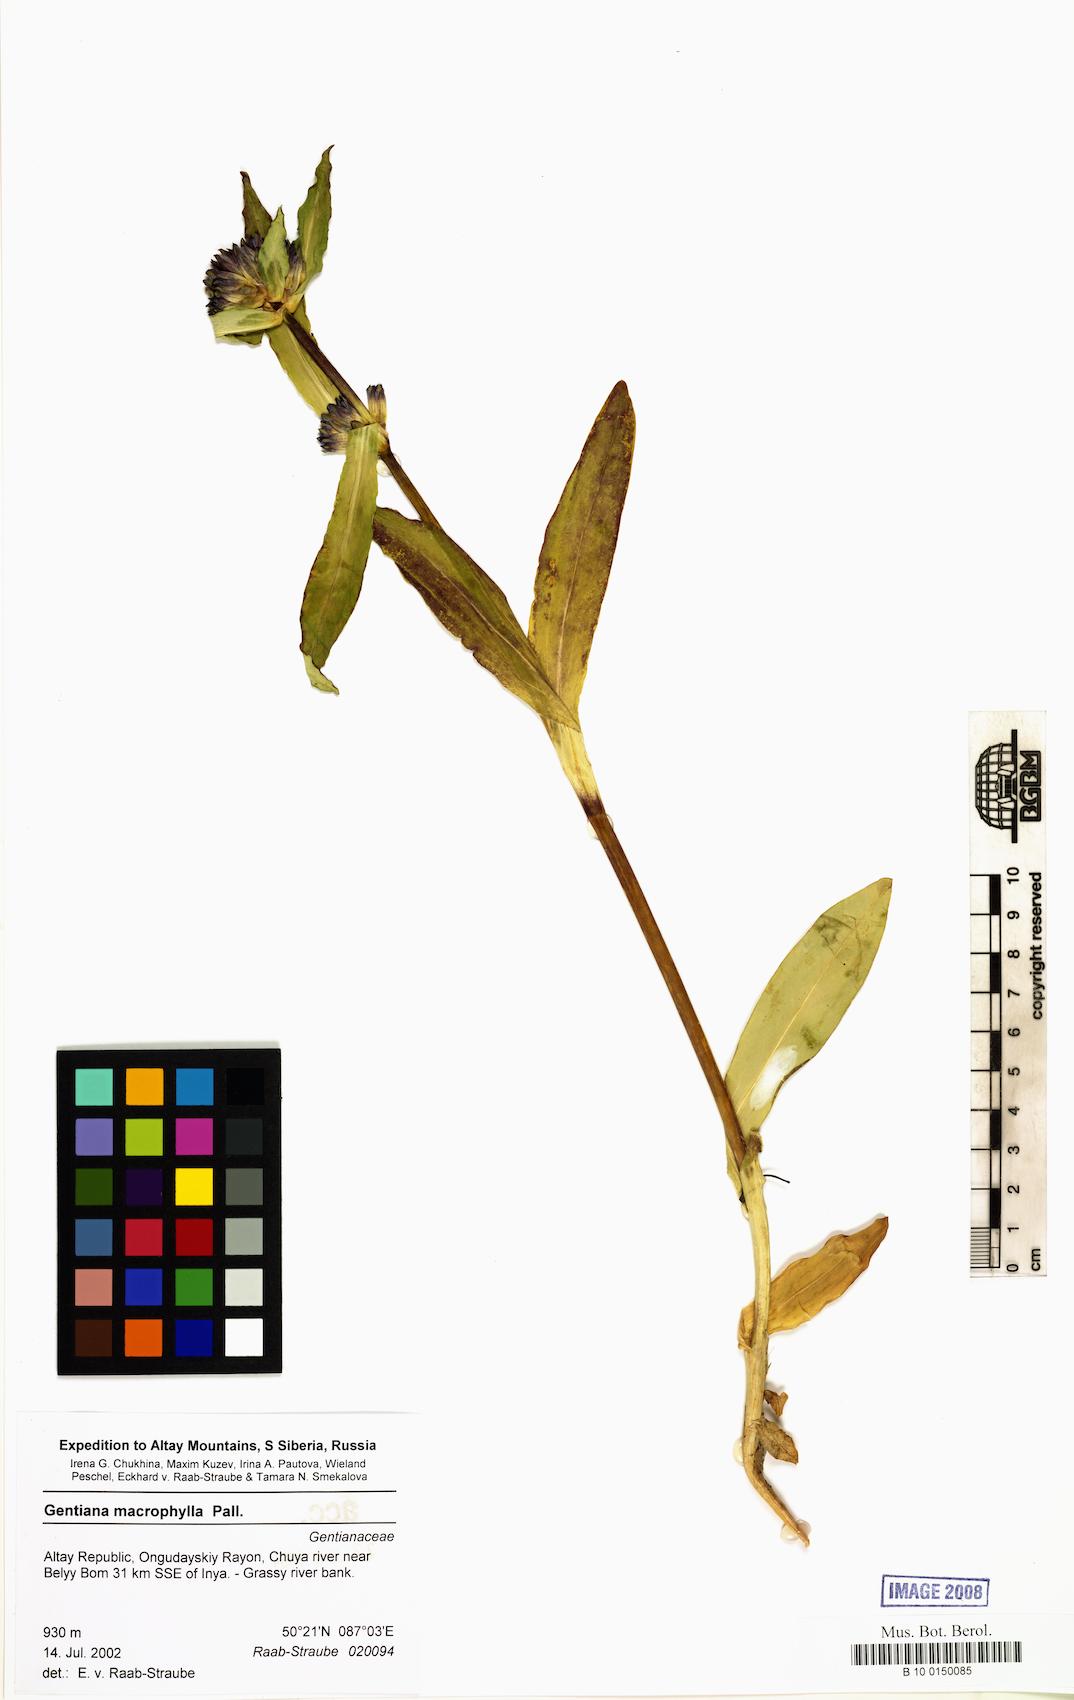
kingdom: Plantae
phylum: Tracheophyta
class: Magnoliopsida
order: Gentianales
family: Gentianaceae
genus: Gentiana
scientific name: Gentiana macrophylla
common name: Large-leaf gentian
